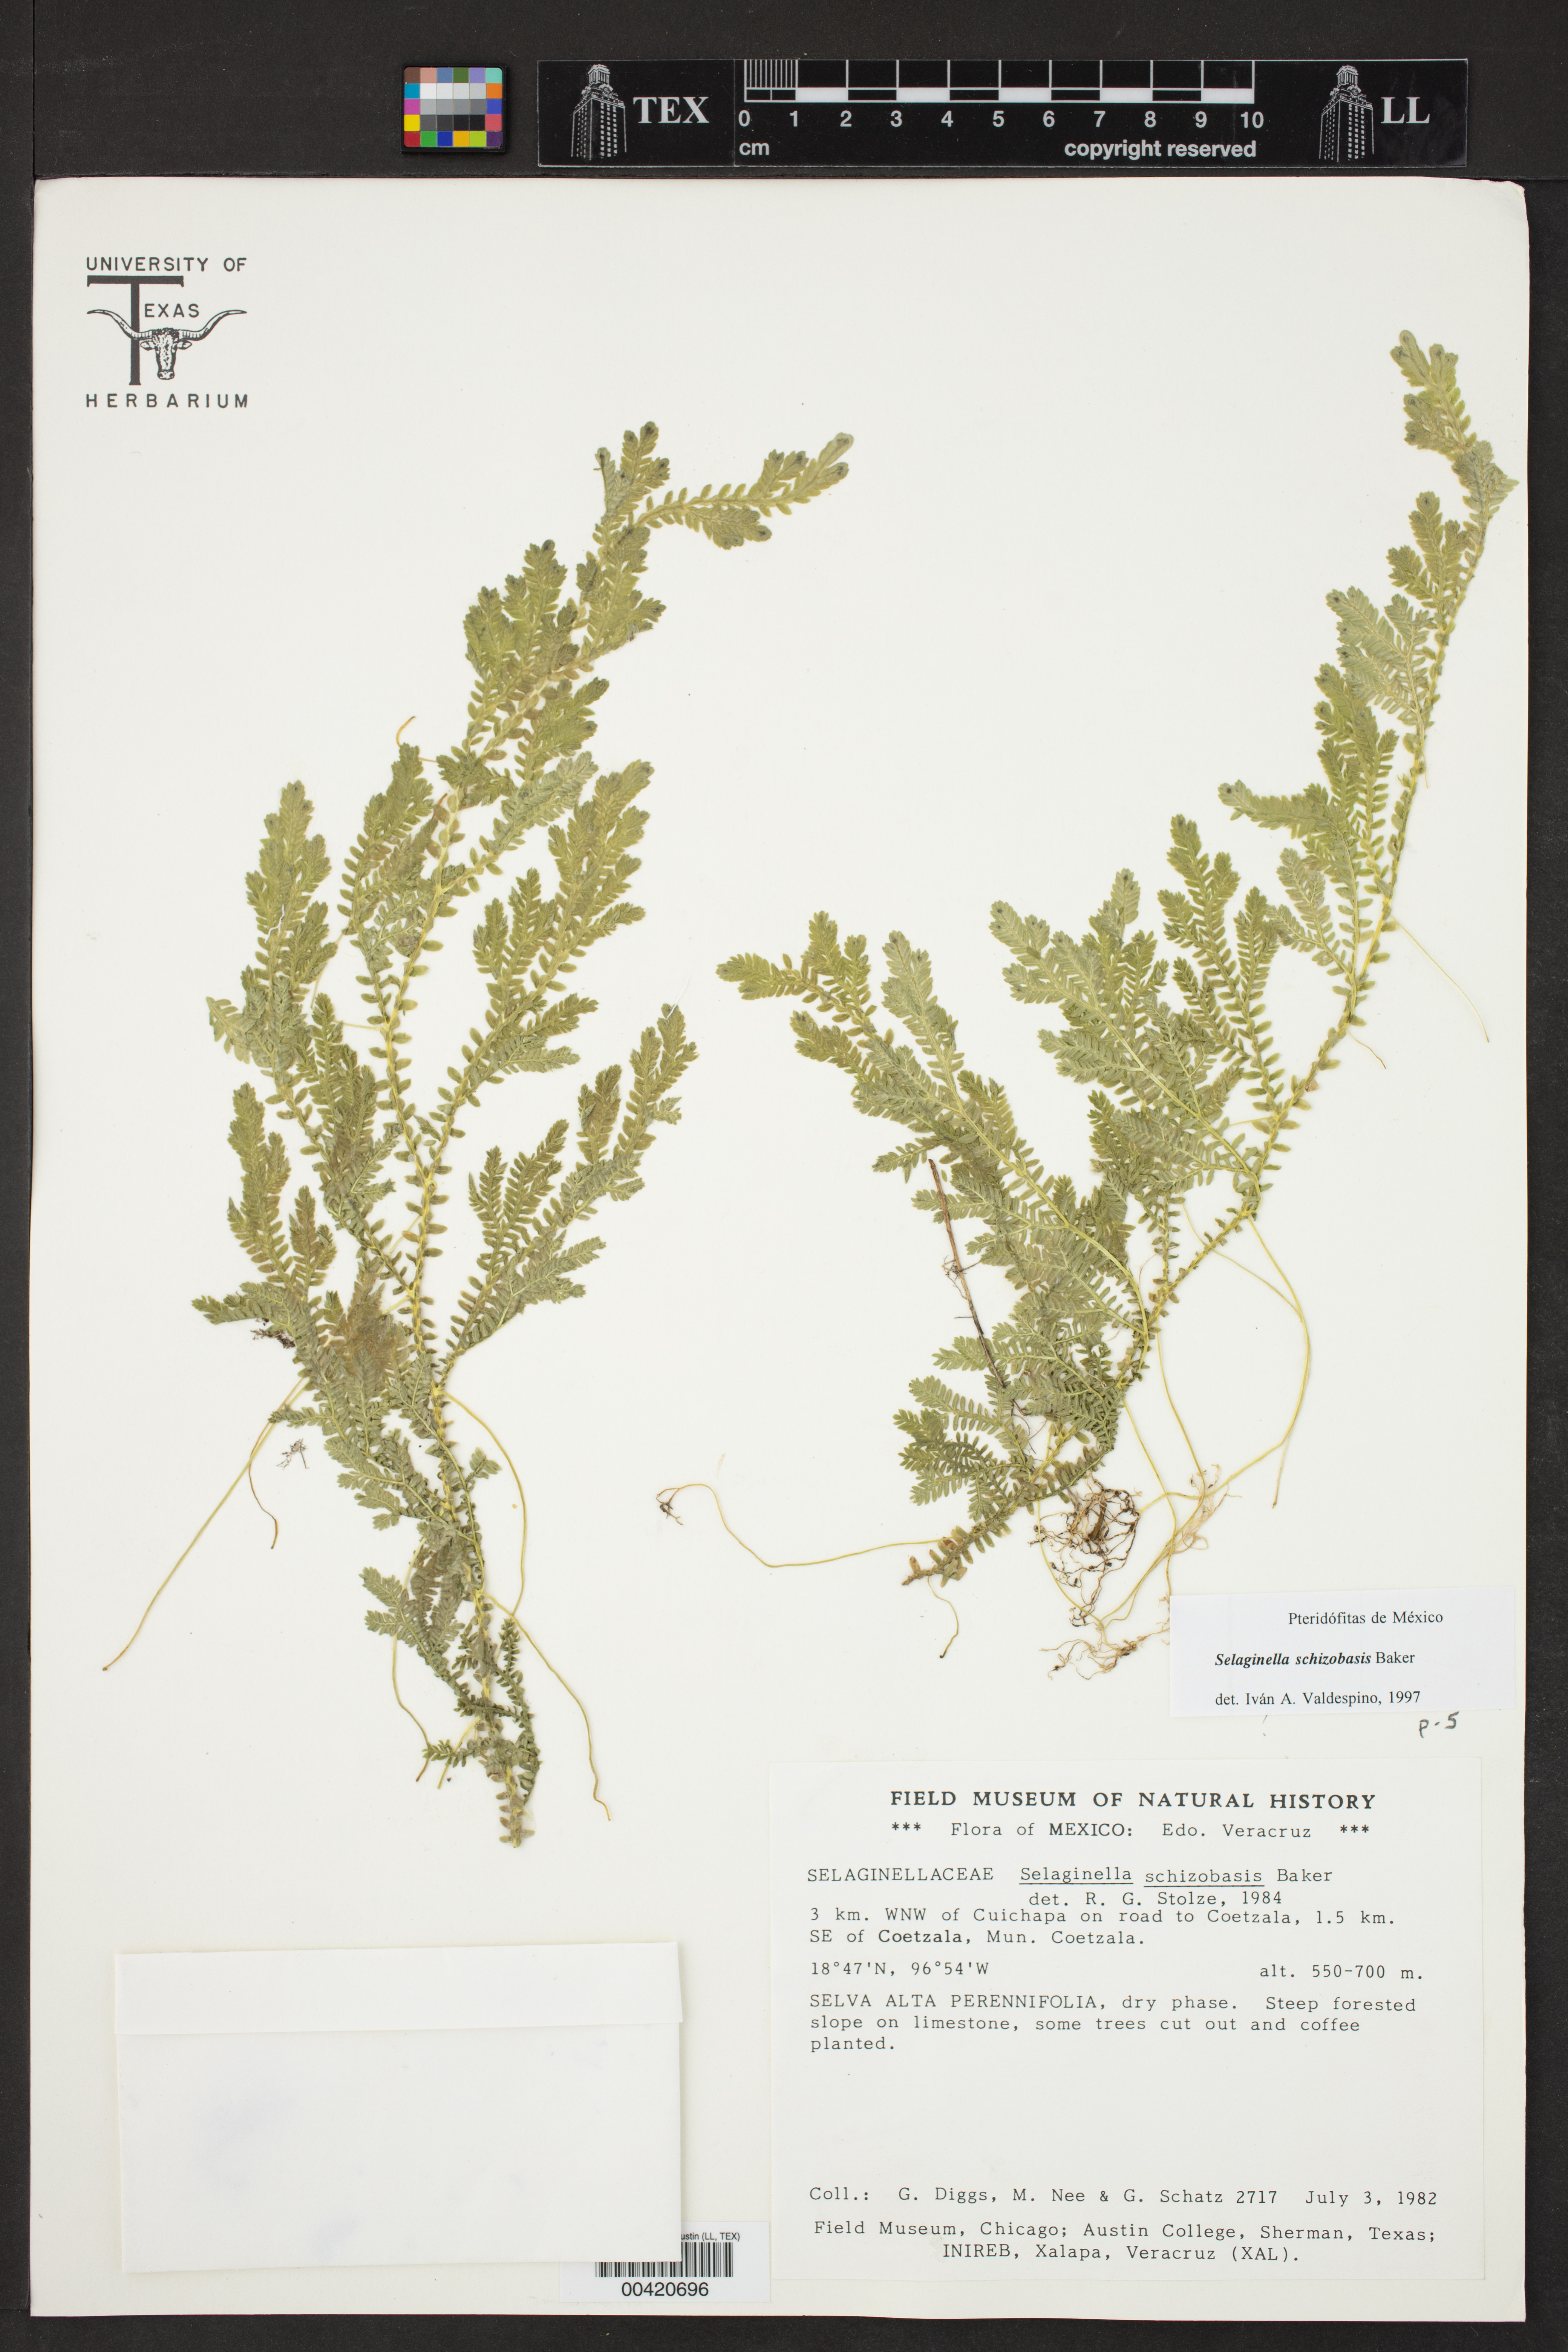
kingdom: Plantae
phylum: Tracheophyta
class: Lycopodiopsida
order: Selaginellales
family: Selaginellaceae
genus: Selaginella
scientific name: Selaginella schizobasis
